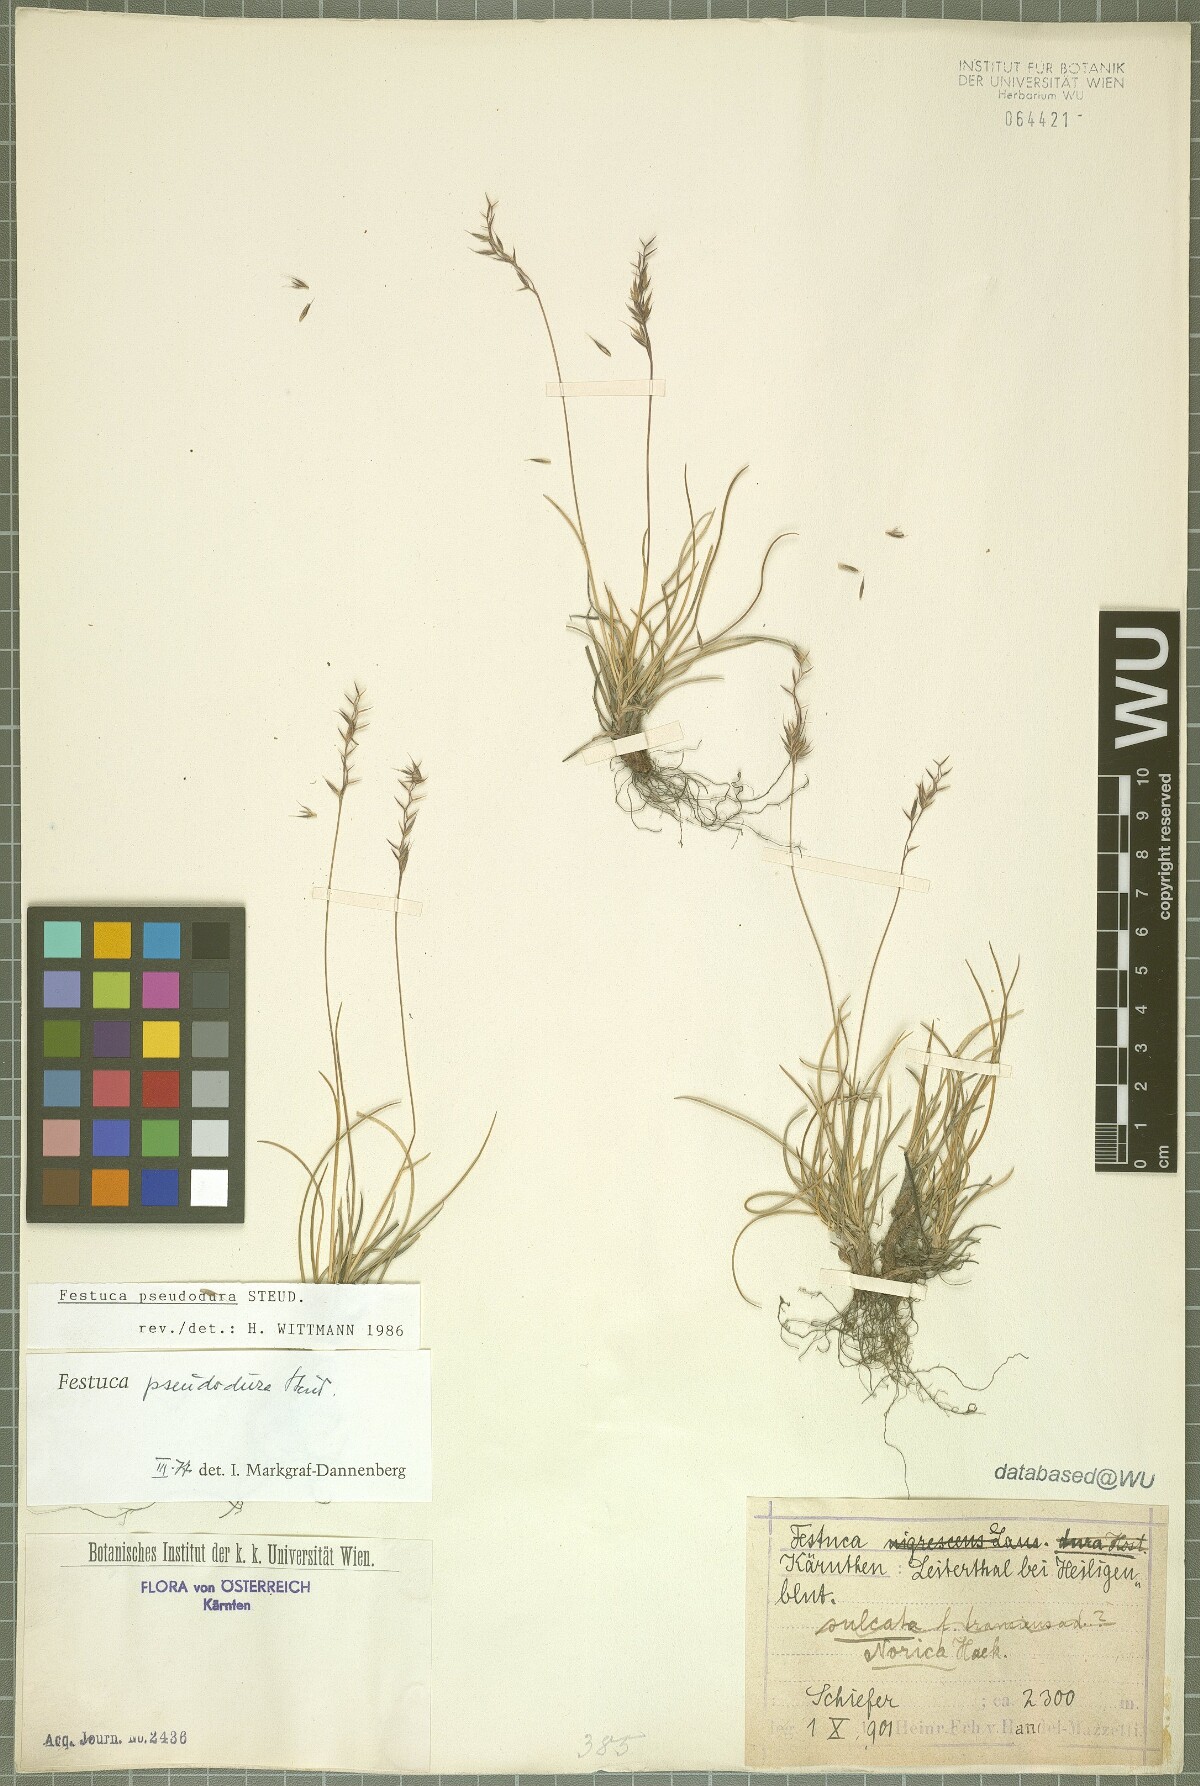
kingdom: Plantae
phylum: Tracheophyta
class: Liliopsida
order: Poales
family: Poaceae
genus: Festuca
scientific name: Festuca pseudodura
